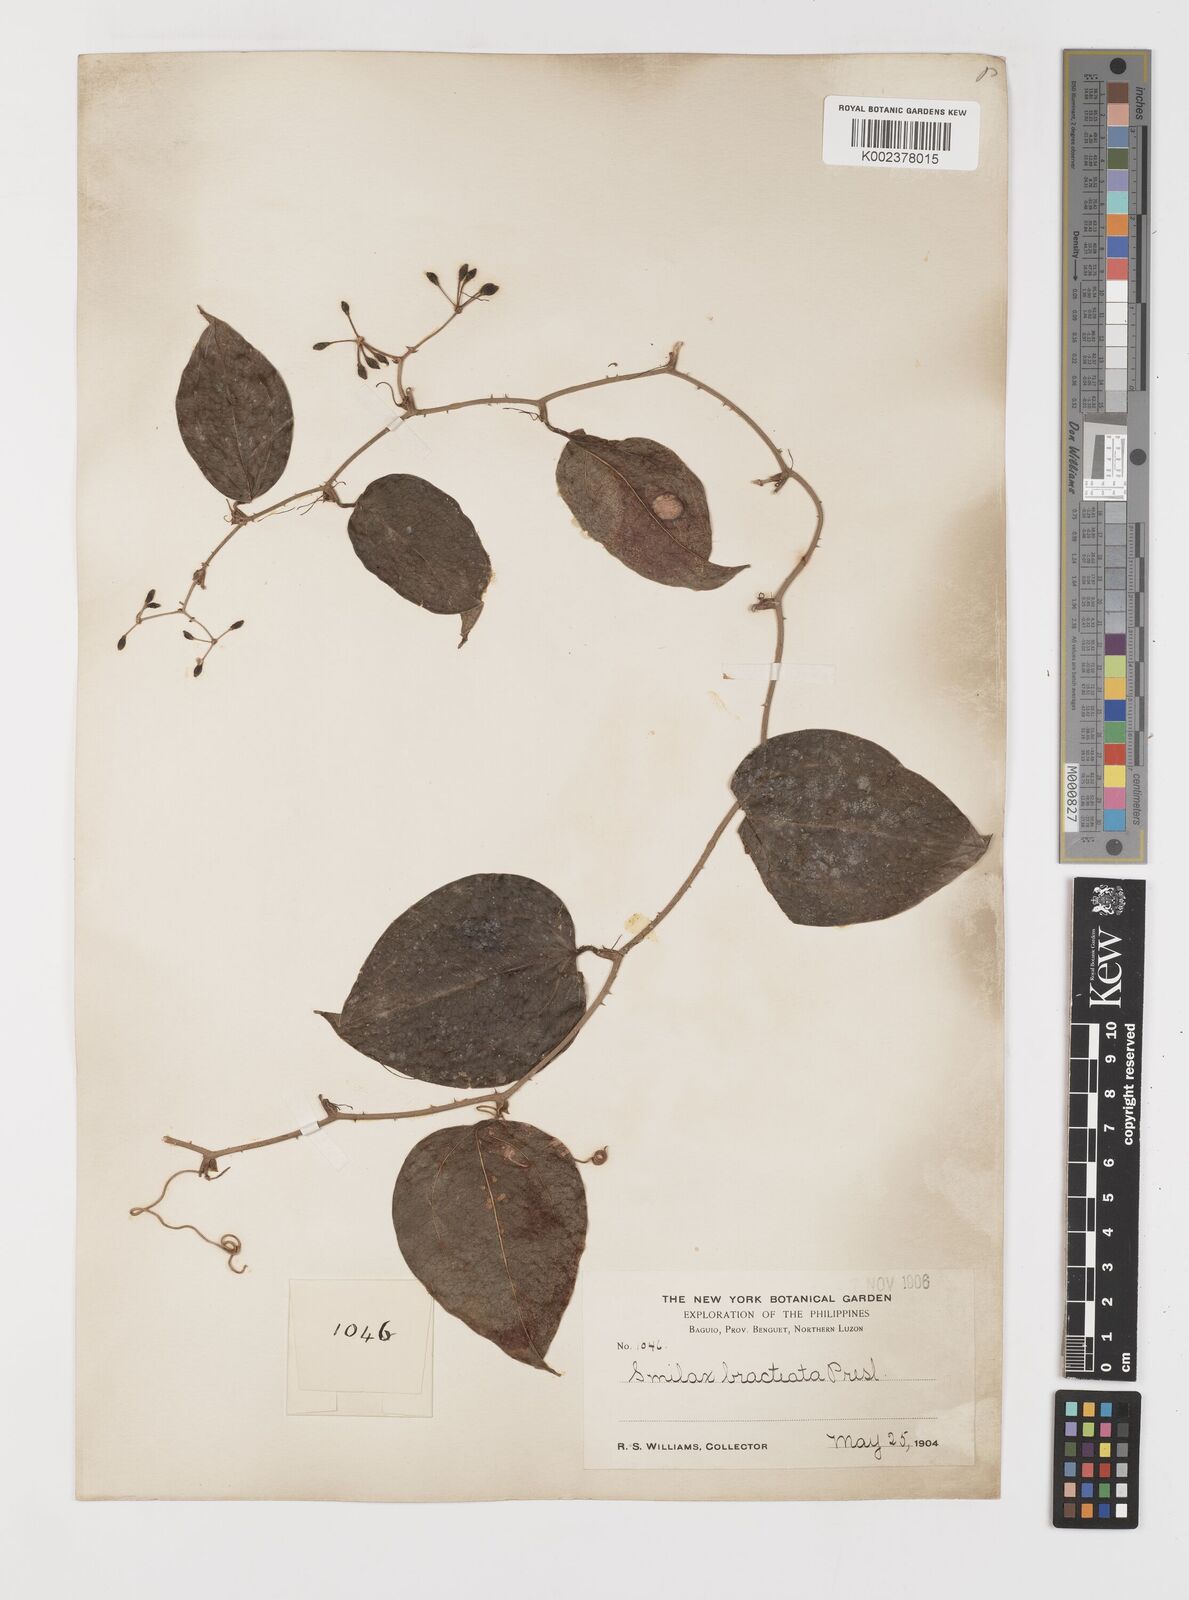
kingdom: Plantae
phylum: Tracheophyta
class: Liliopsida
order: Liliales
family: Smilacaceae
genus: Smilax
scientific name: Smilax bracteata
